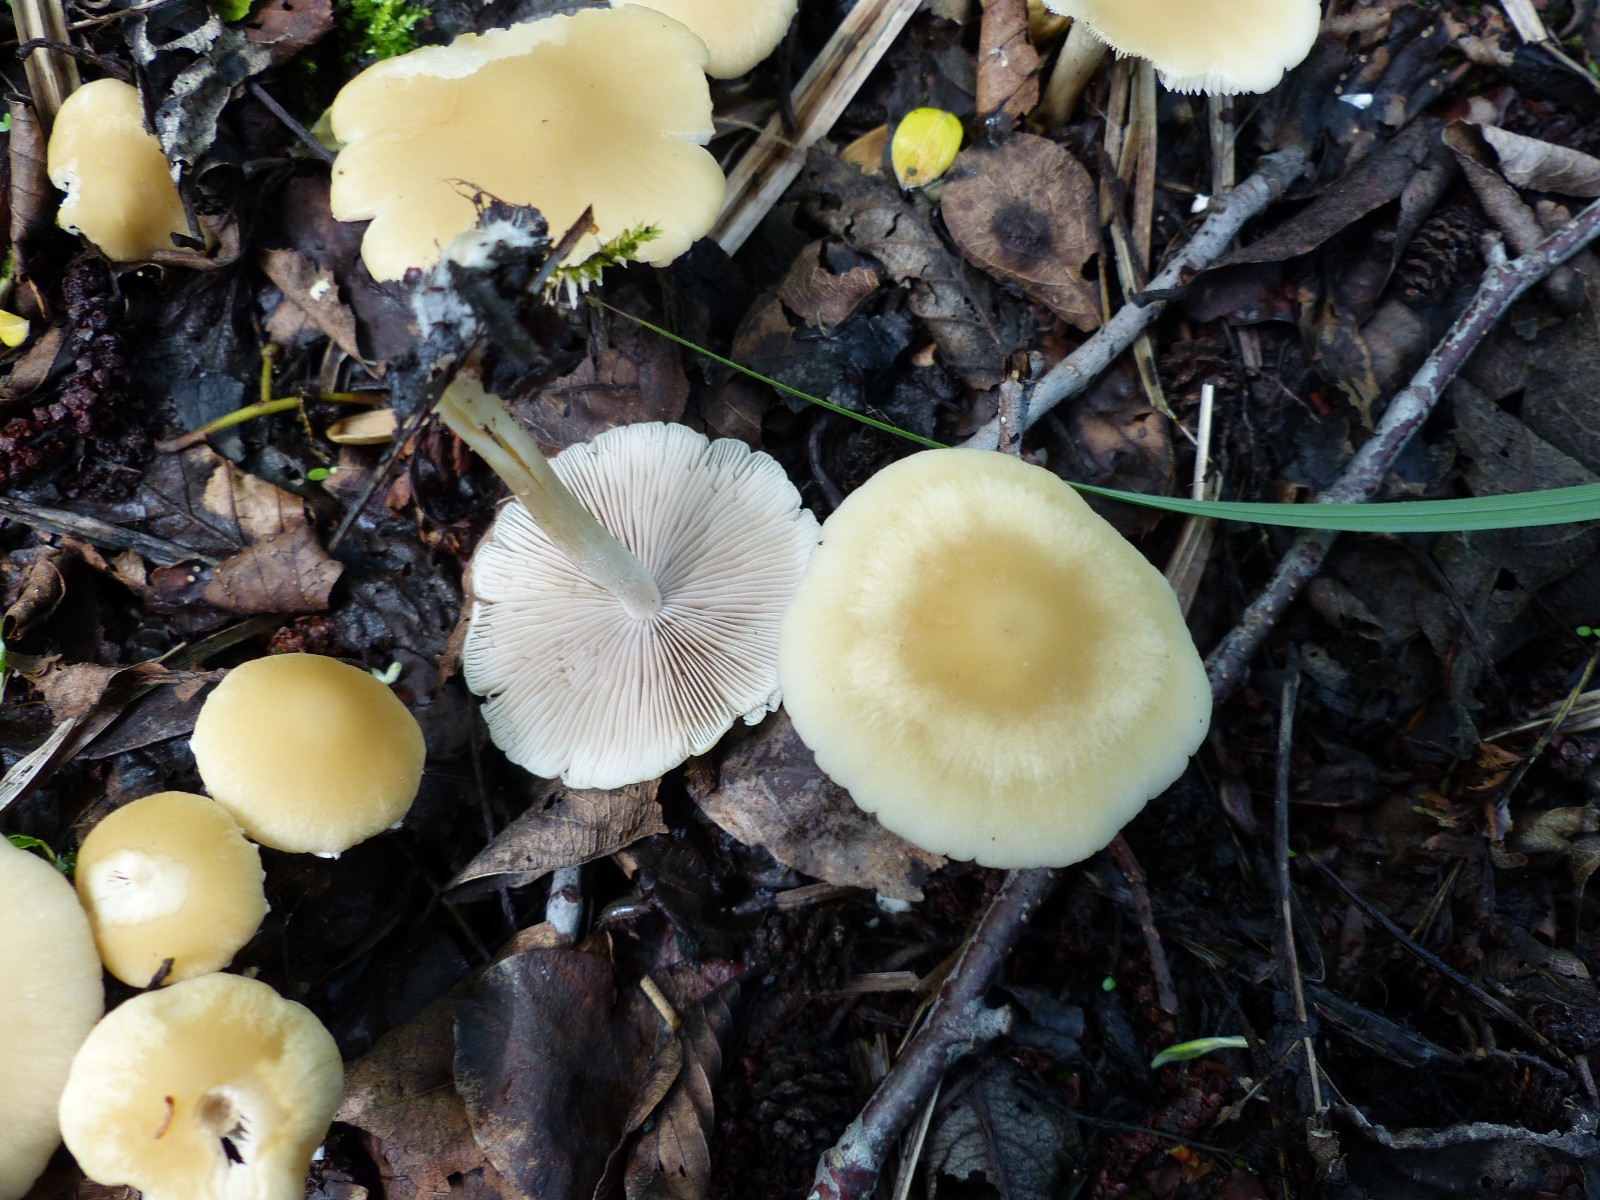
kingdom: Fungi
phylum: Basidiomycota
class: Agaricomycetes
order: Agaricales
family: Psathyrellaceae
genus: Candolleomyces
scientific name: Candolleomyces candolleanus
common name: Candolles mørkhat
